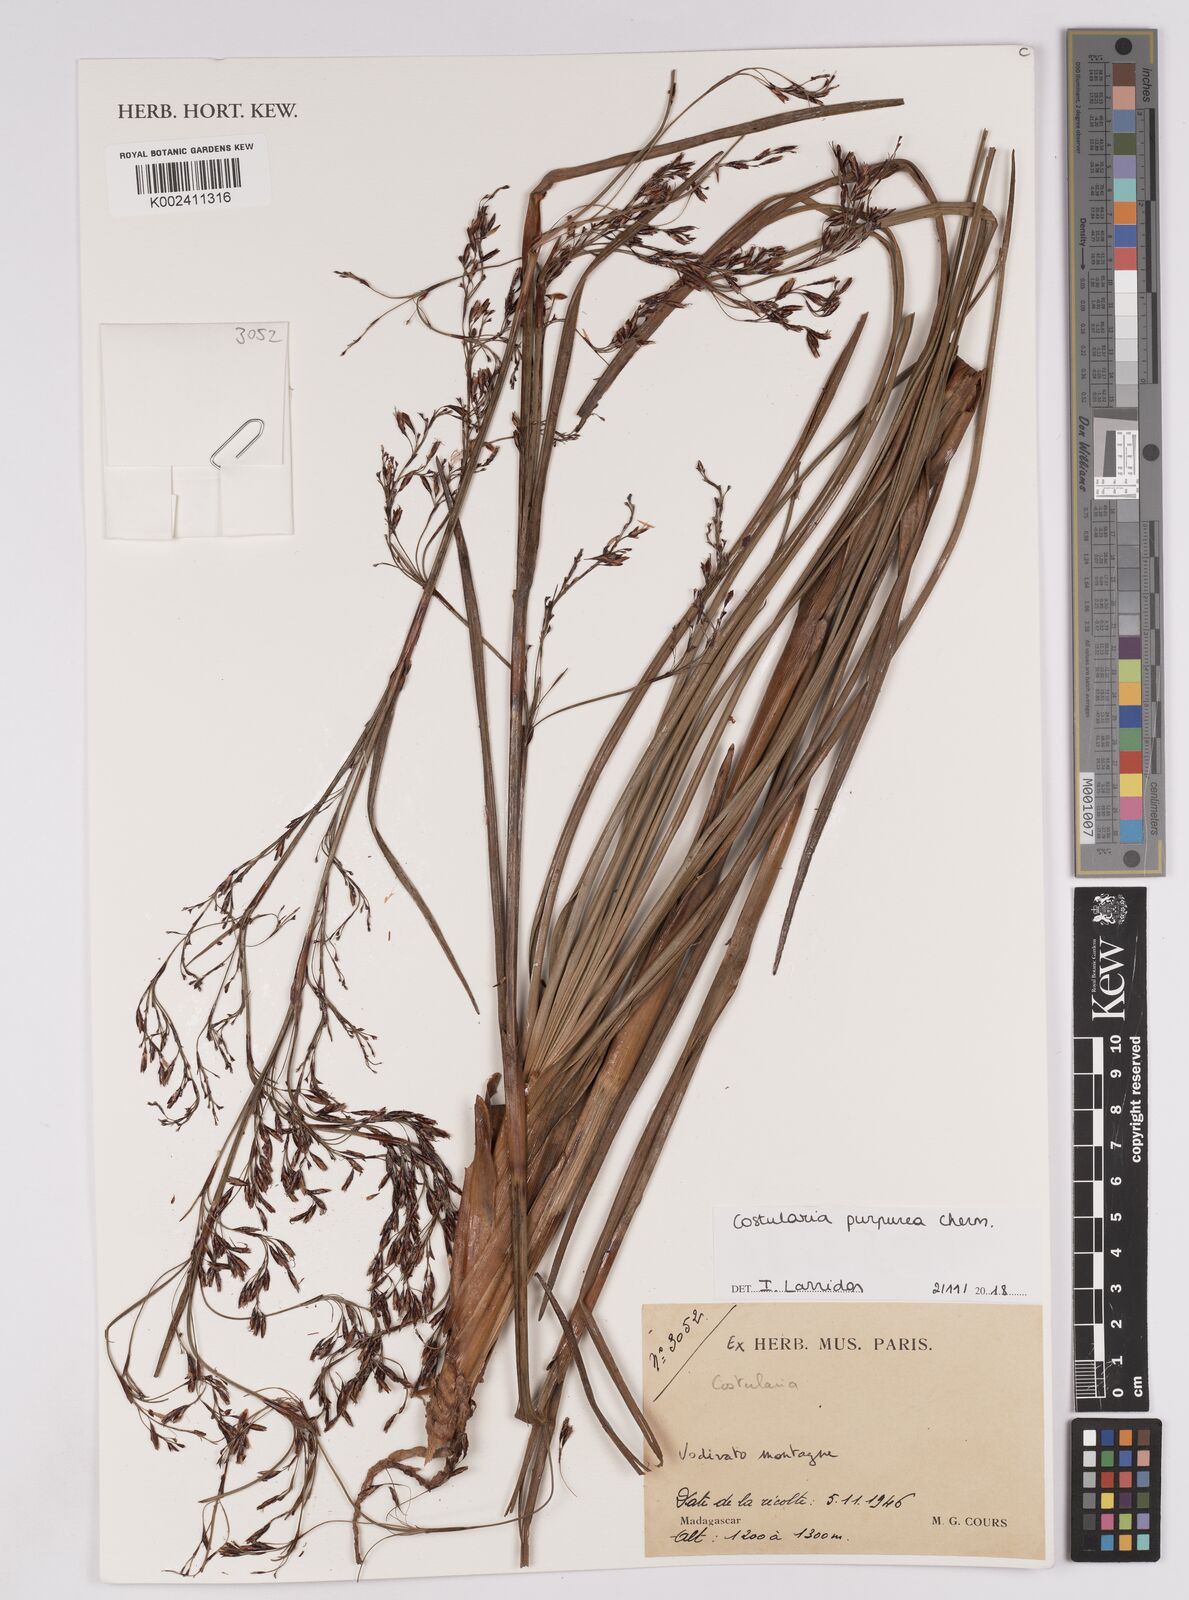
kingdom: Plantae
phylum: Tracheophyta
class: Liliopsida
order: Poales
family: Cyperaceae
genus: Costularia
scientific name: Costularia purpurea
